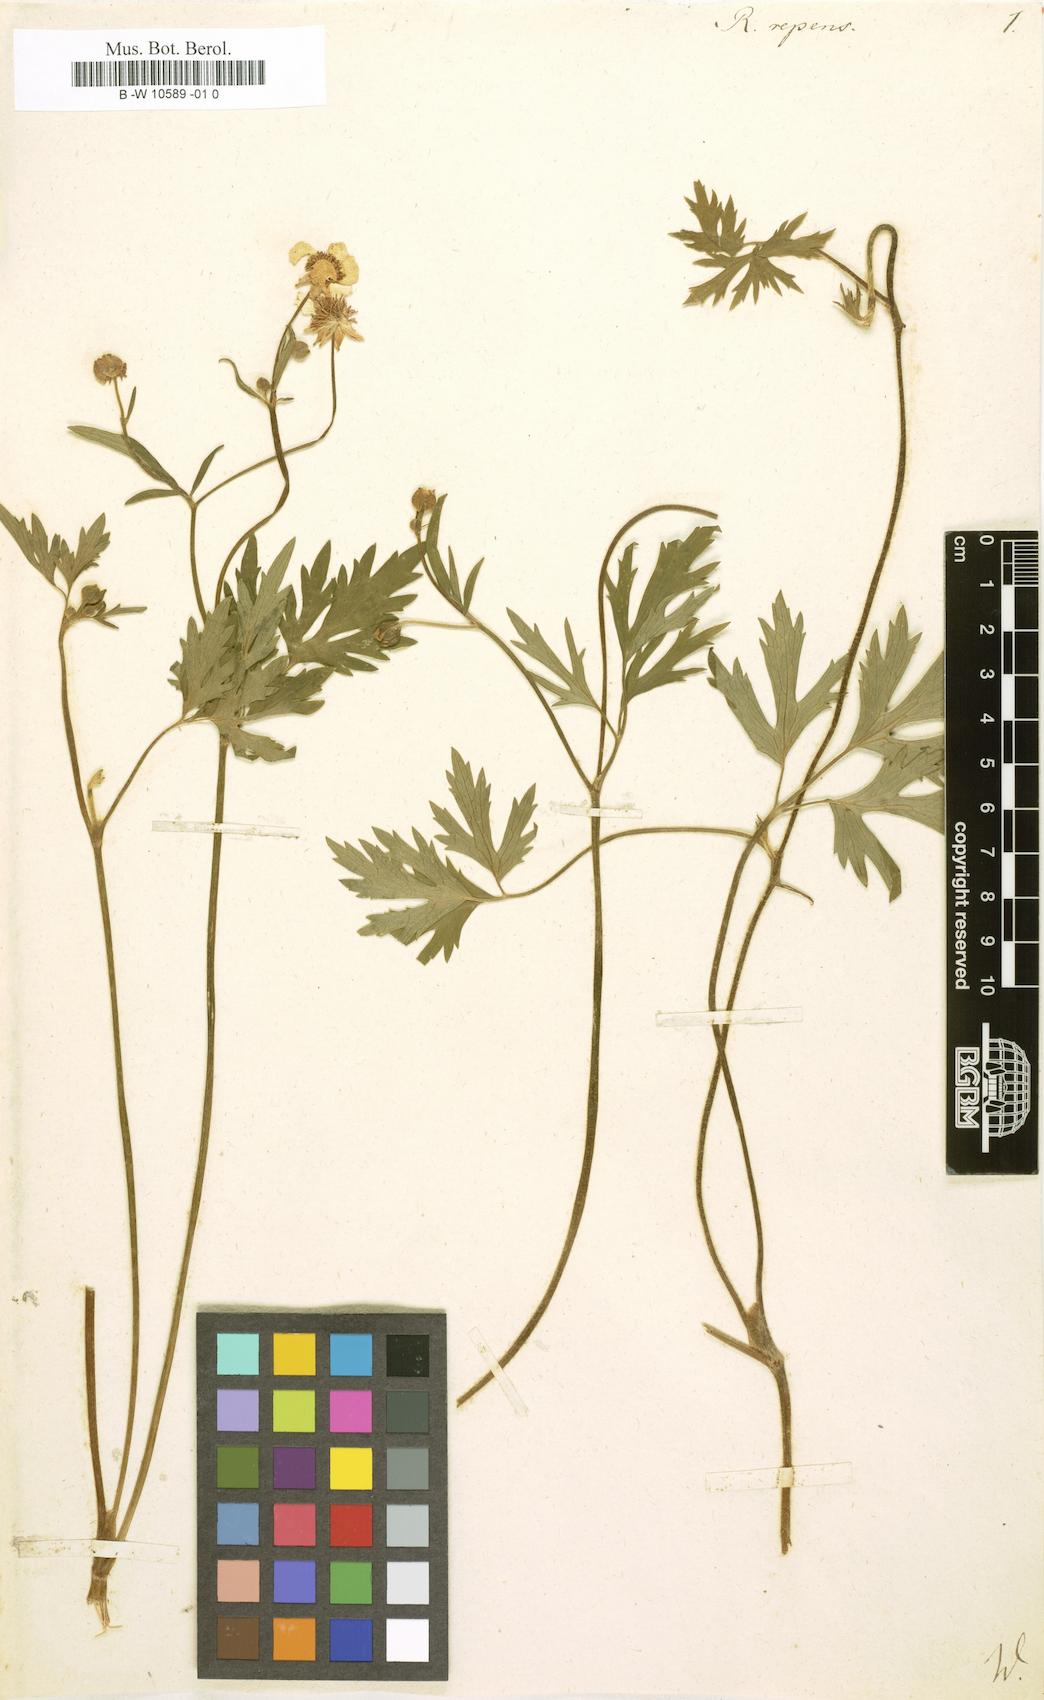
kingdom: Plantae
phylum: Tracheophyta
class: Magnoliopsida
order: Ranunculales
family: Ranunculaceae
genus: Ranunculus
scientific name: Ranunculus repens
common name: Creeping buttercup
